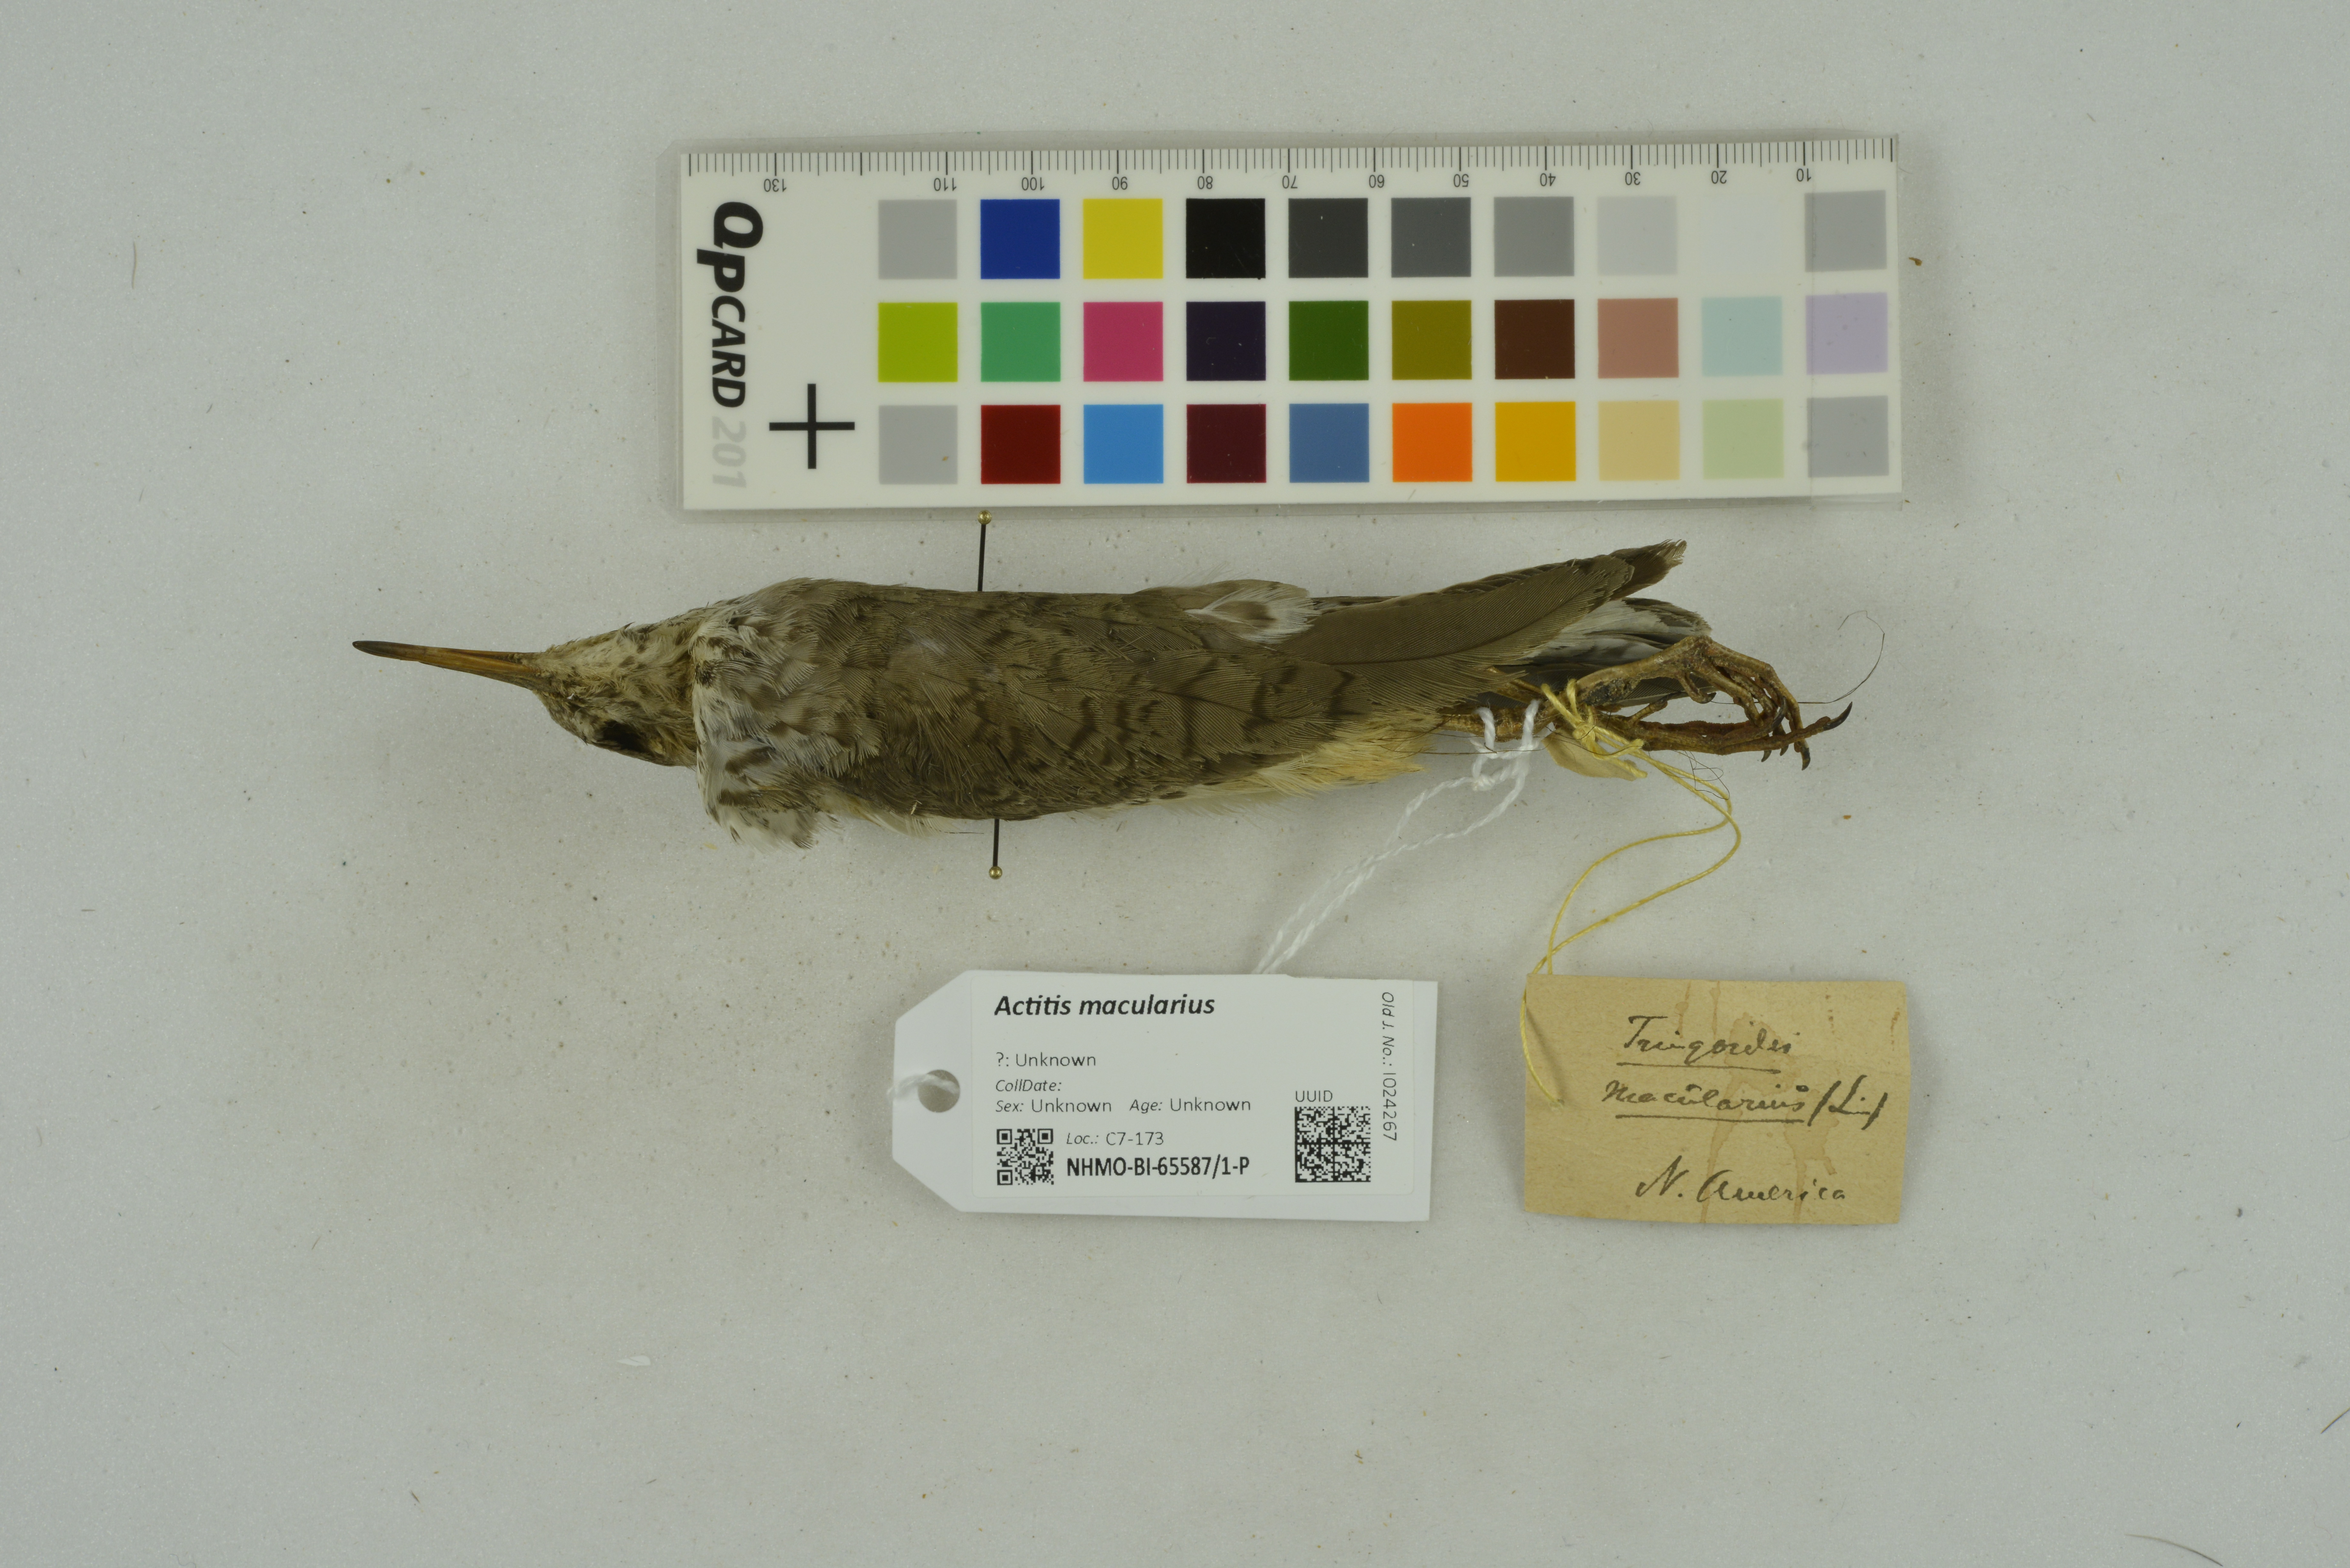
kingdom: Animalia
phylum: Chordata
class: Aves
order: Charadriiformes
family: Scolopacidae
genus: Actitis
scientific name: Actitis macularius
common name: Spotted sandpiper
